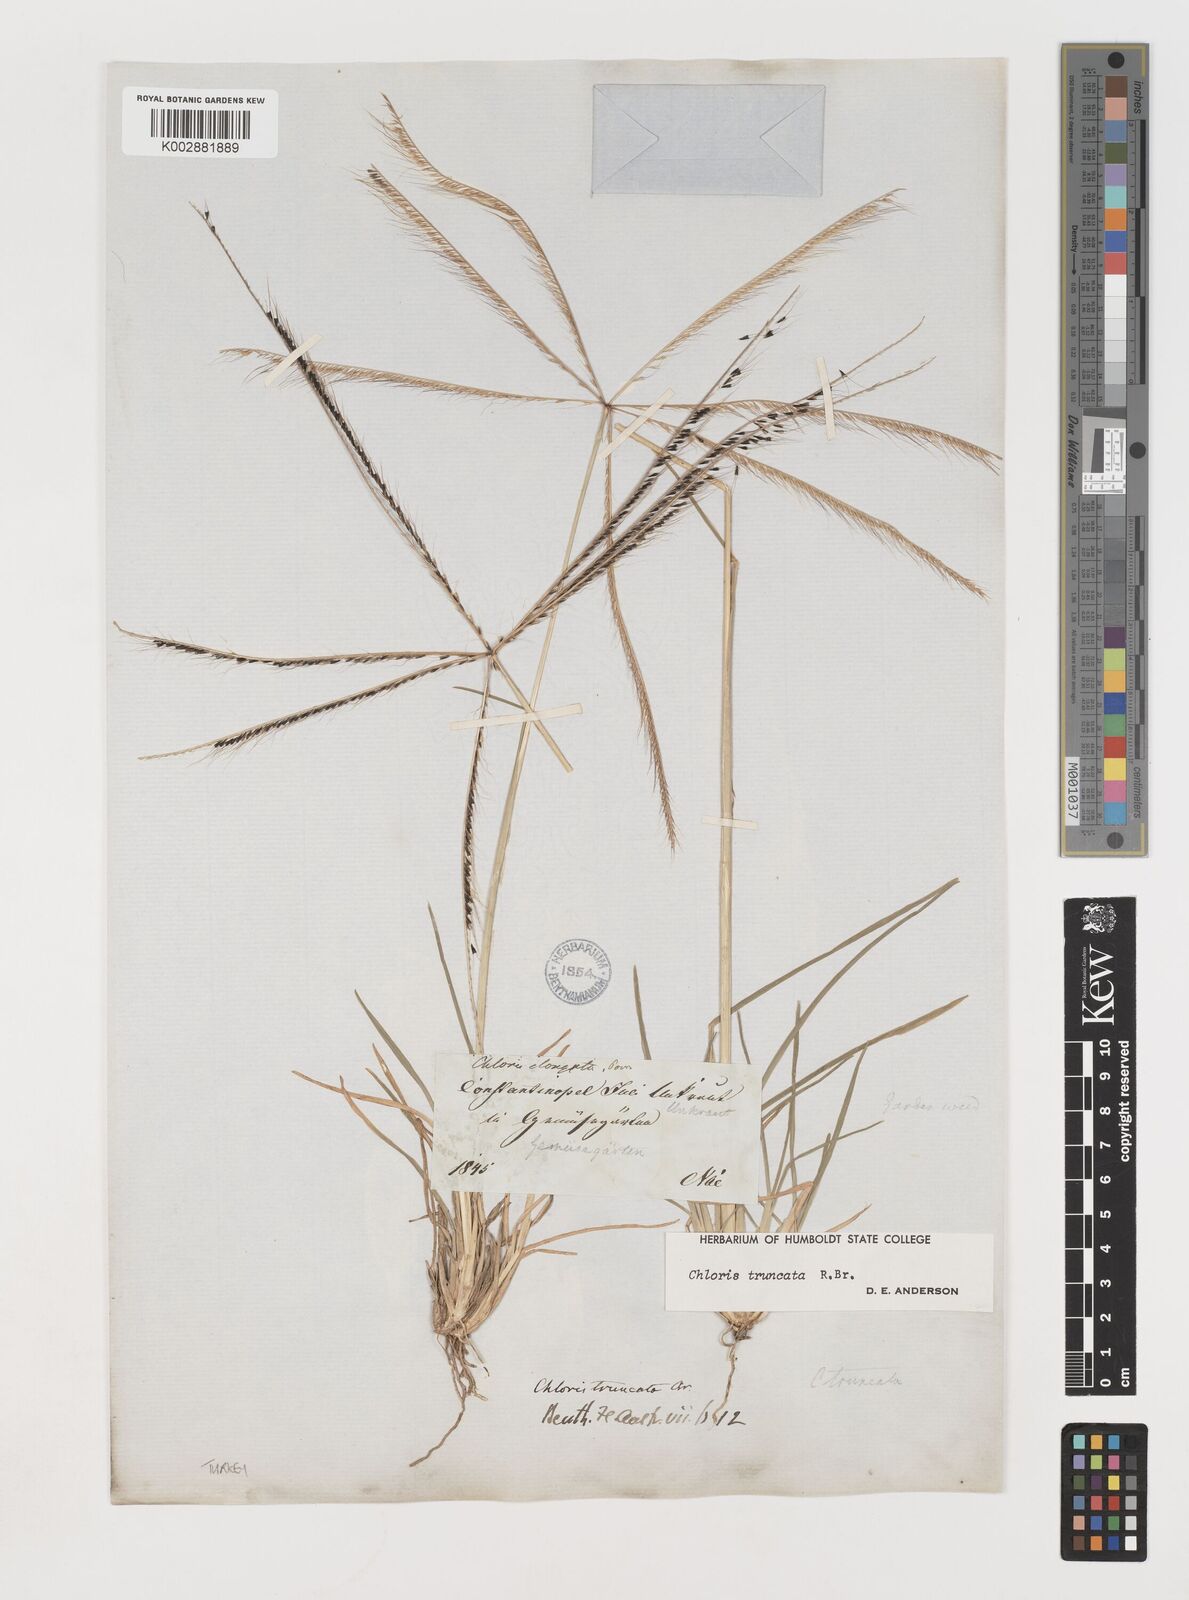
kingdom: Plantae
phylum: Tracheophyta
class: Liliopsida
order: Poales
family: Poaceae
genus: Chloris
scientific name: Chloris truncata
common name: Windmill-grass
